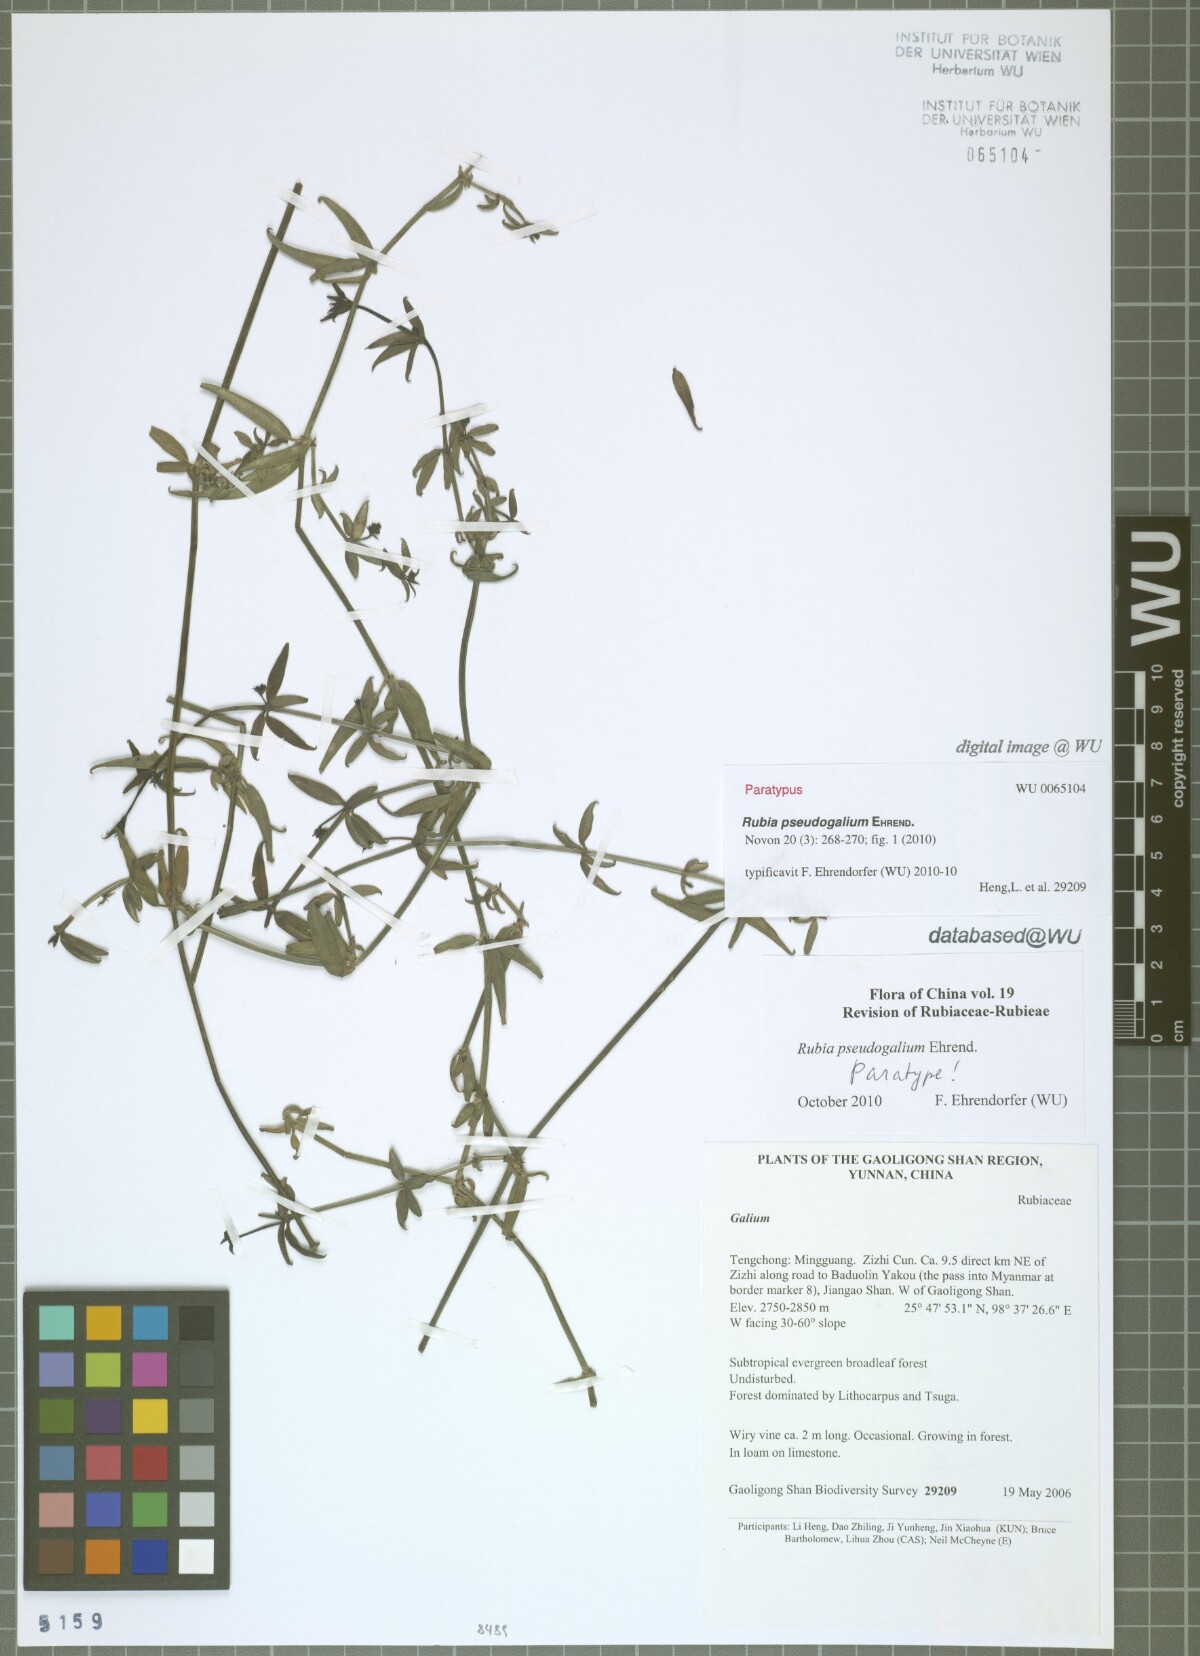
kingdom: Plantae
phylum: Tracheophyta
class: Magnoliopsida
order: Gentianales
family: Rubiaceae
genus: Rubia
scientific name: Rubia pseudogalium
